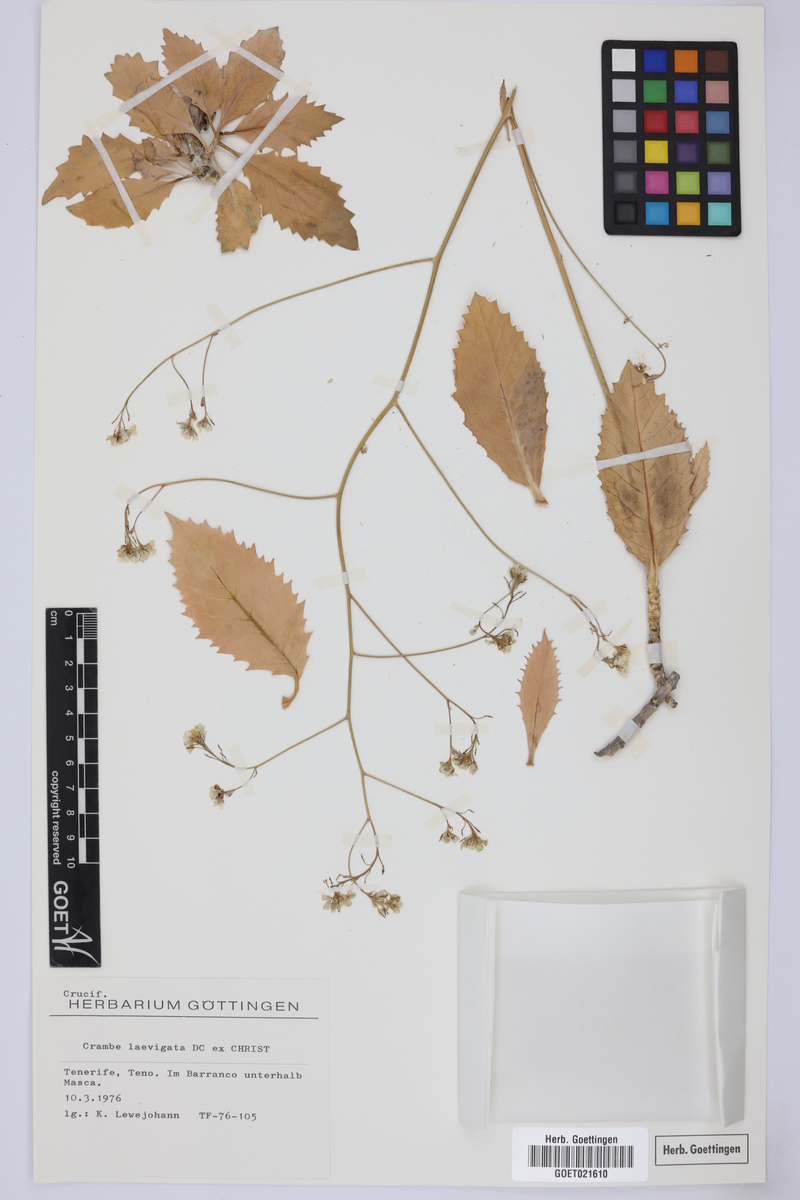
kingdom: Plantae
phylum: Tracheophyta
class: Magnoliopsida
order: Brassicales
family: Brassicaceae
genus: Crambe
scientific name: Crambe laevigata
